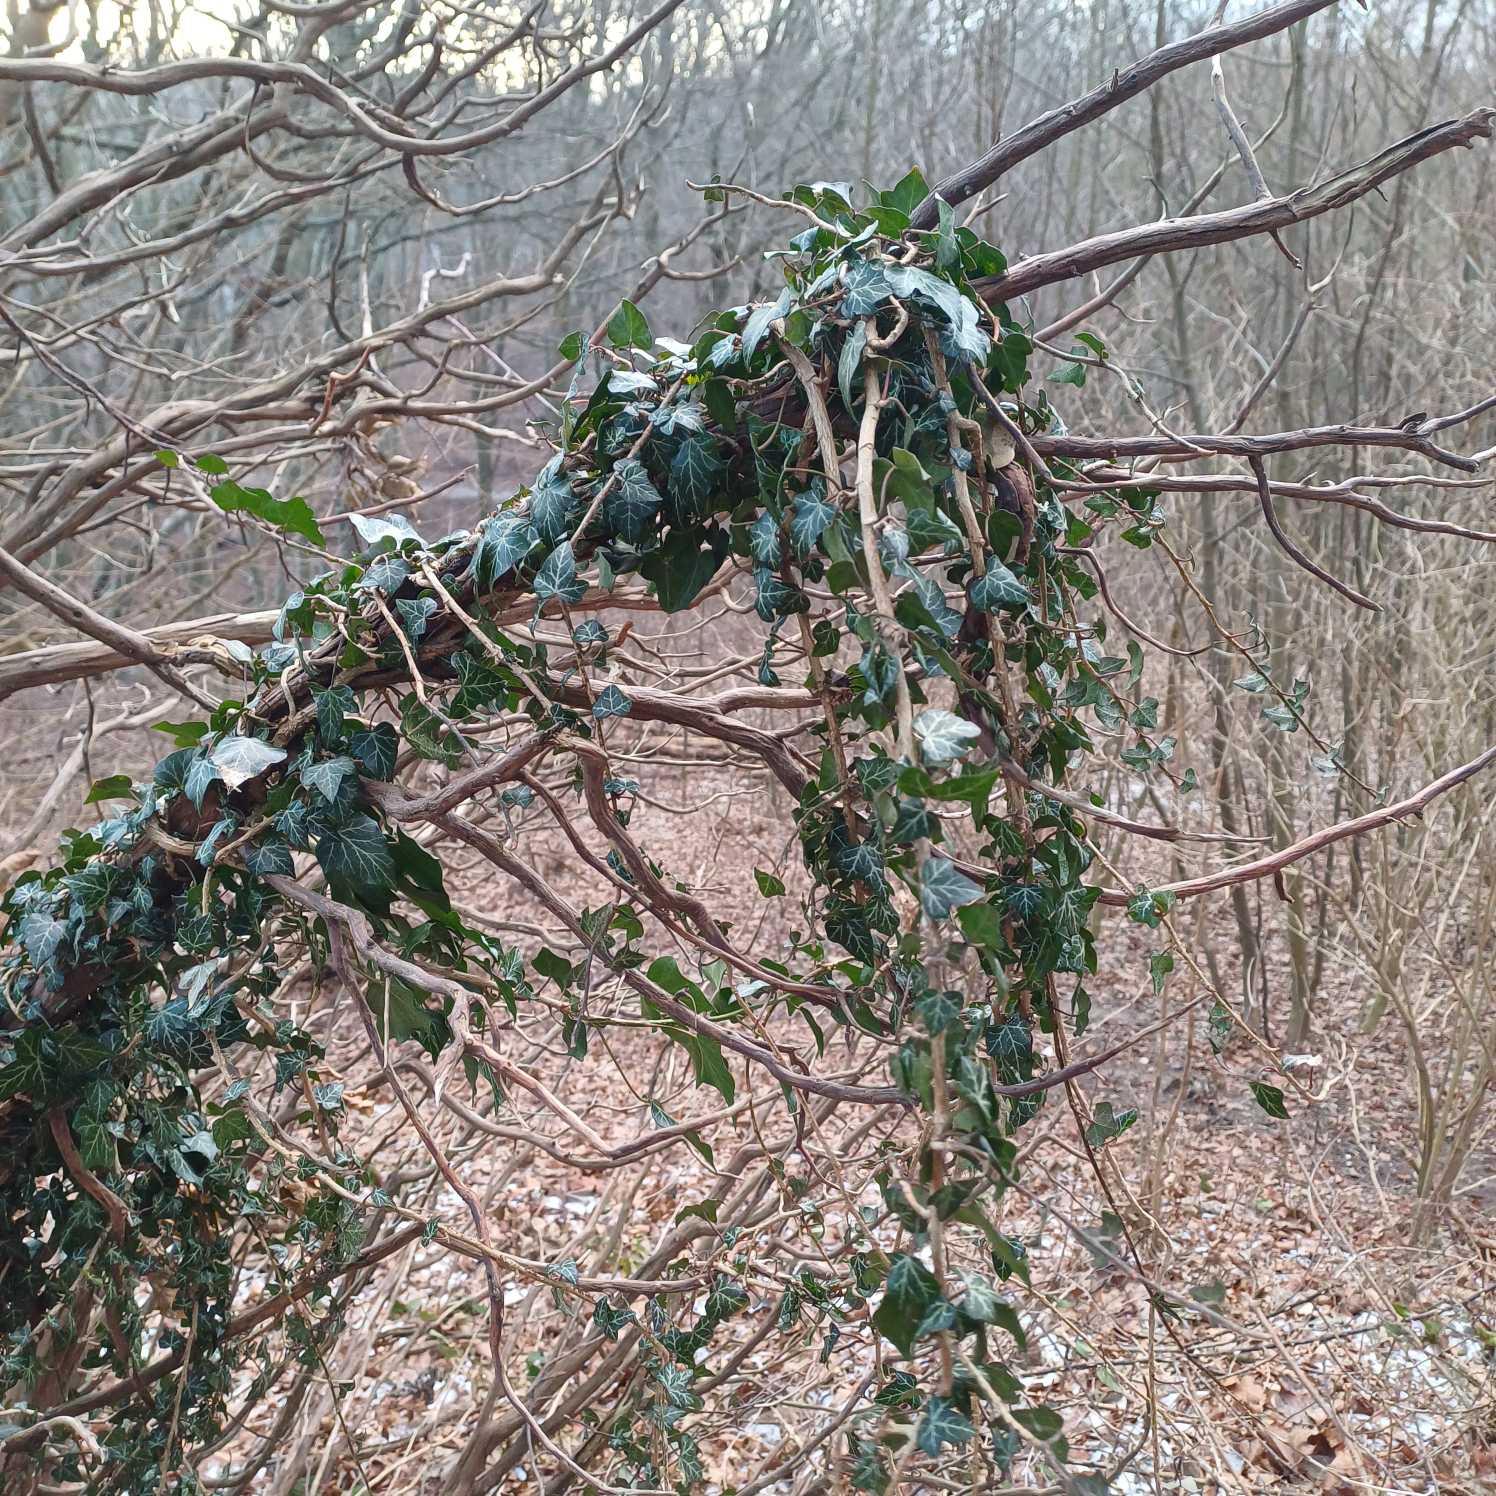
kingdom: Plantae
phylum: Tracheophyta
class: Magnoliopsida
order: Apiales
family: Araliaceae
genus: Hedera
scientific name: Hedera helix
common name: Vedbend
